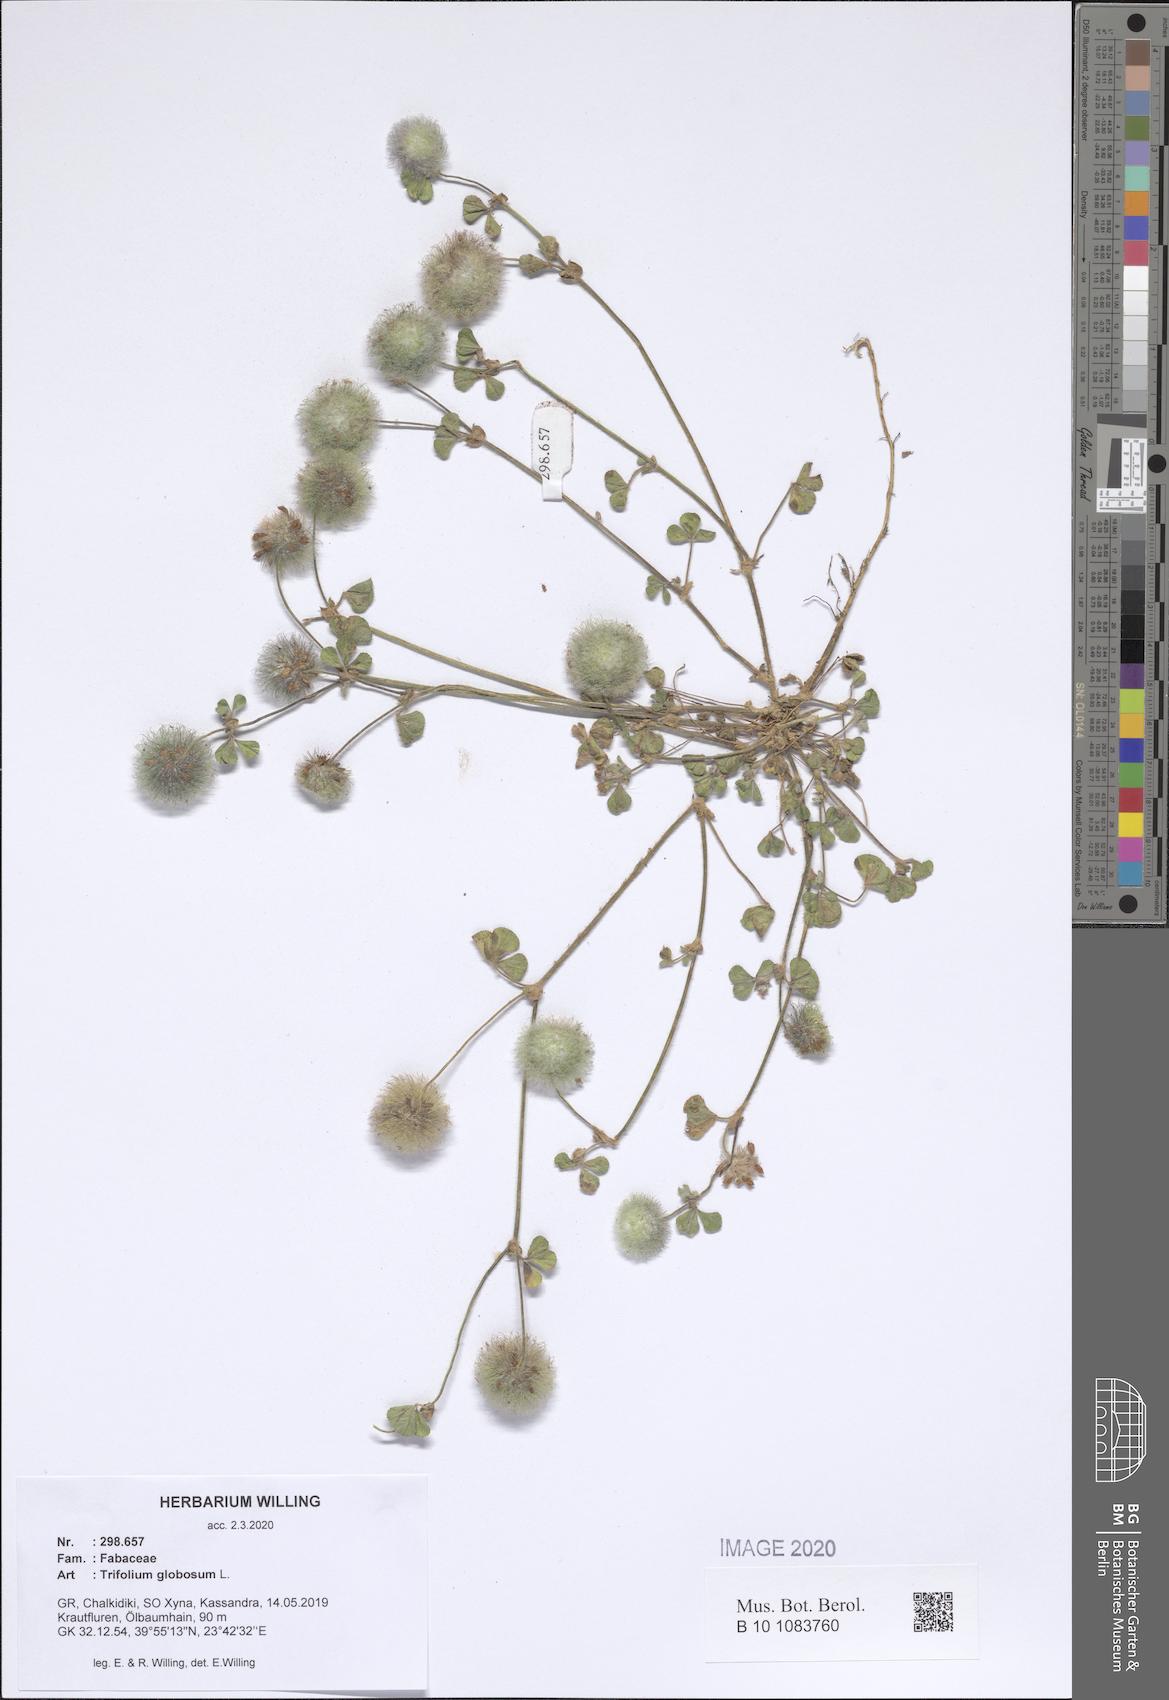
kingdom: Plantae
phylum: Tracheophyta
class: Magnoliopsida
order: Fabales
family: Fabaceae
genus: Trifolium
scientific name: Trifolium globosum
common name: Round-head clover
